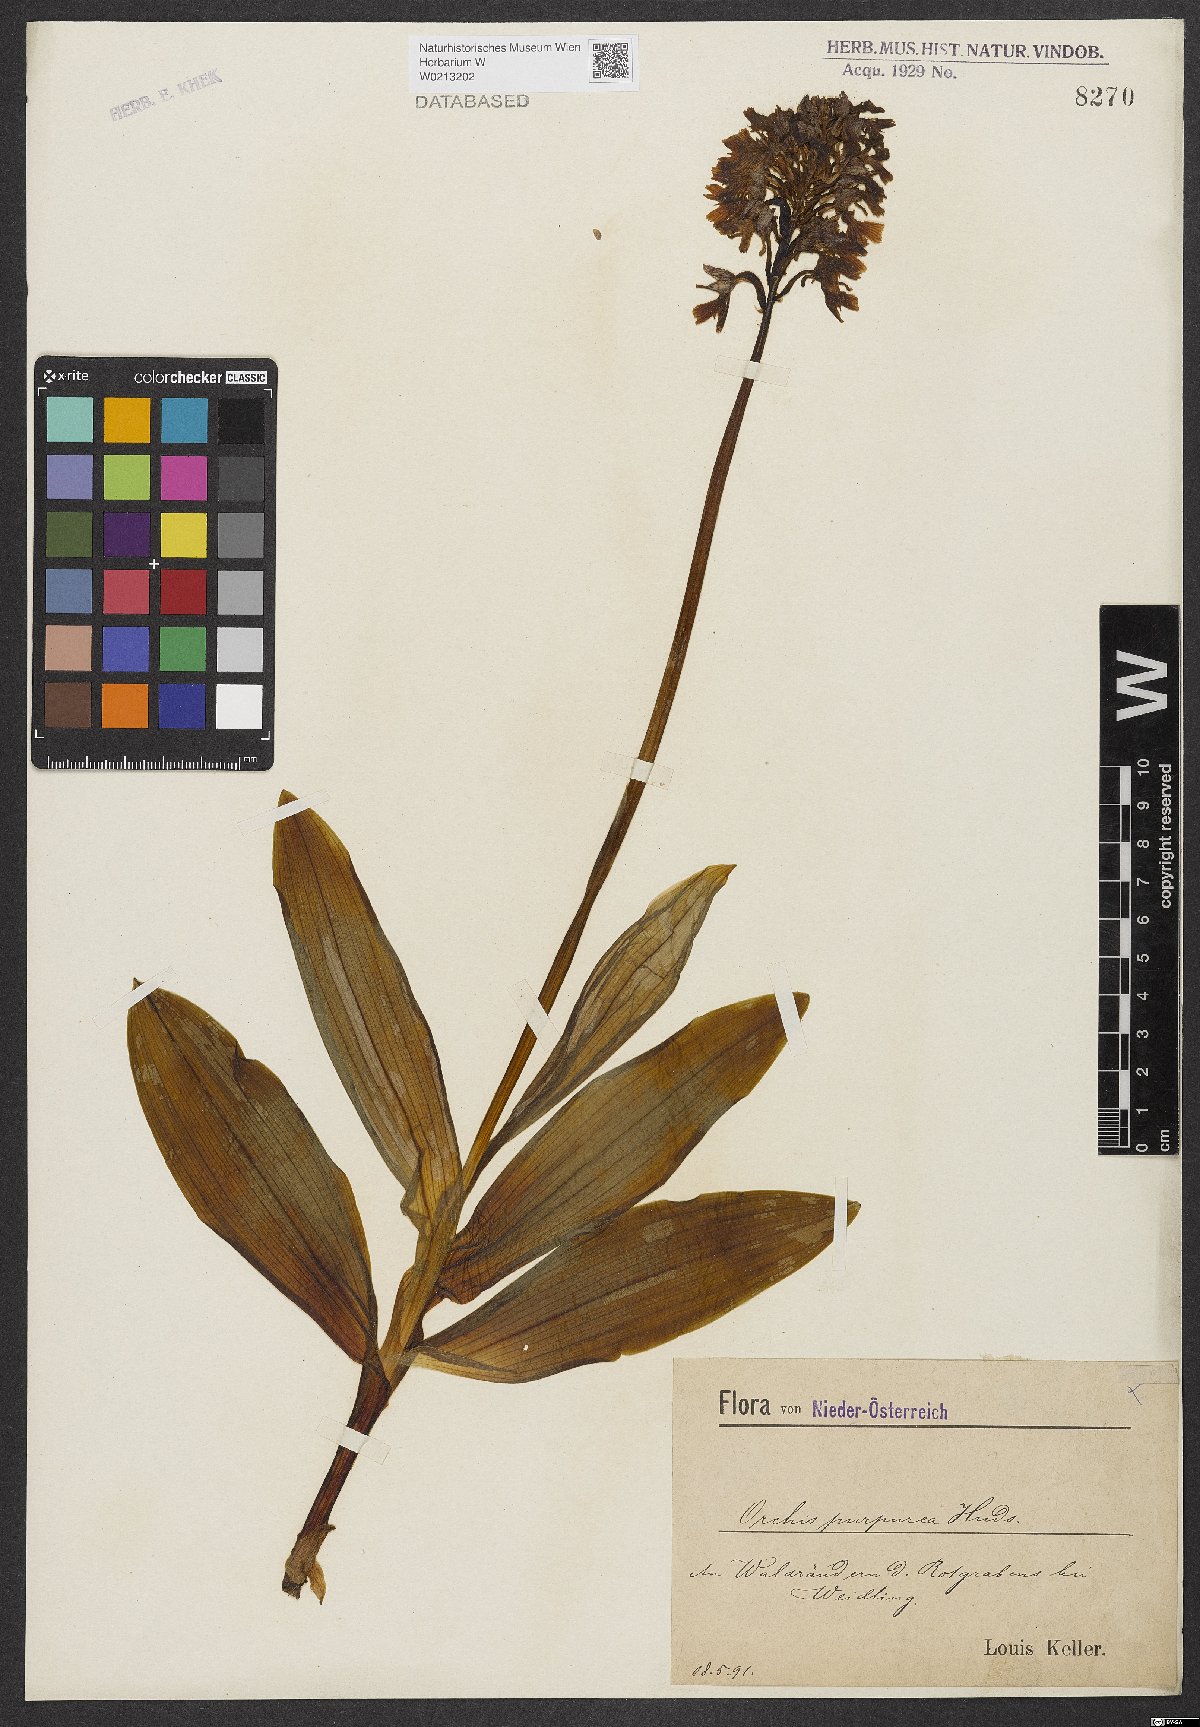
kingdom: Plantae
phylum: Tracheophyta
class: Liliopsida
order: Asparagales
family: Orchidaceae
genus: Orchis
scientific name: Orchis purpurea
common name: Lady orchid
